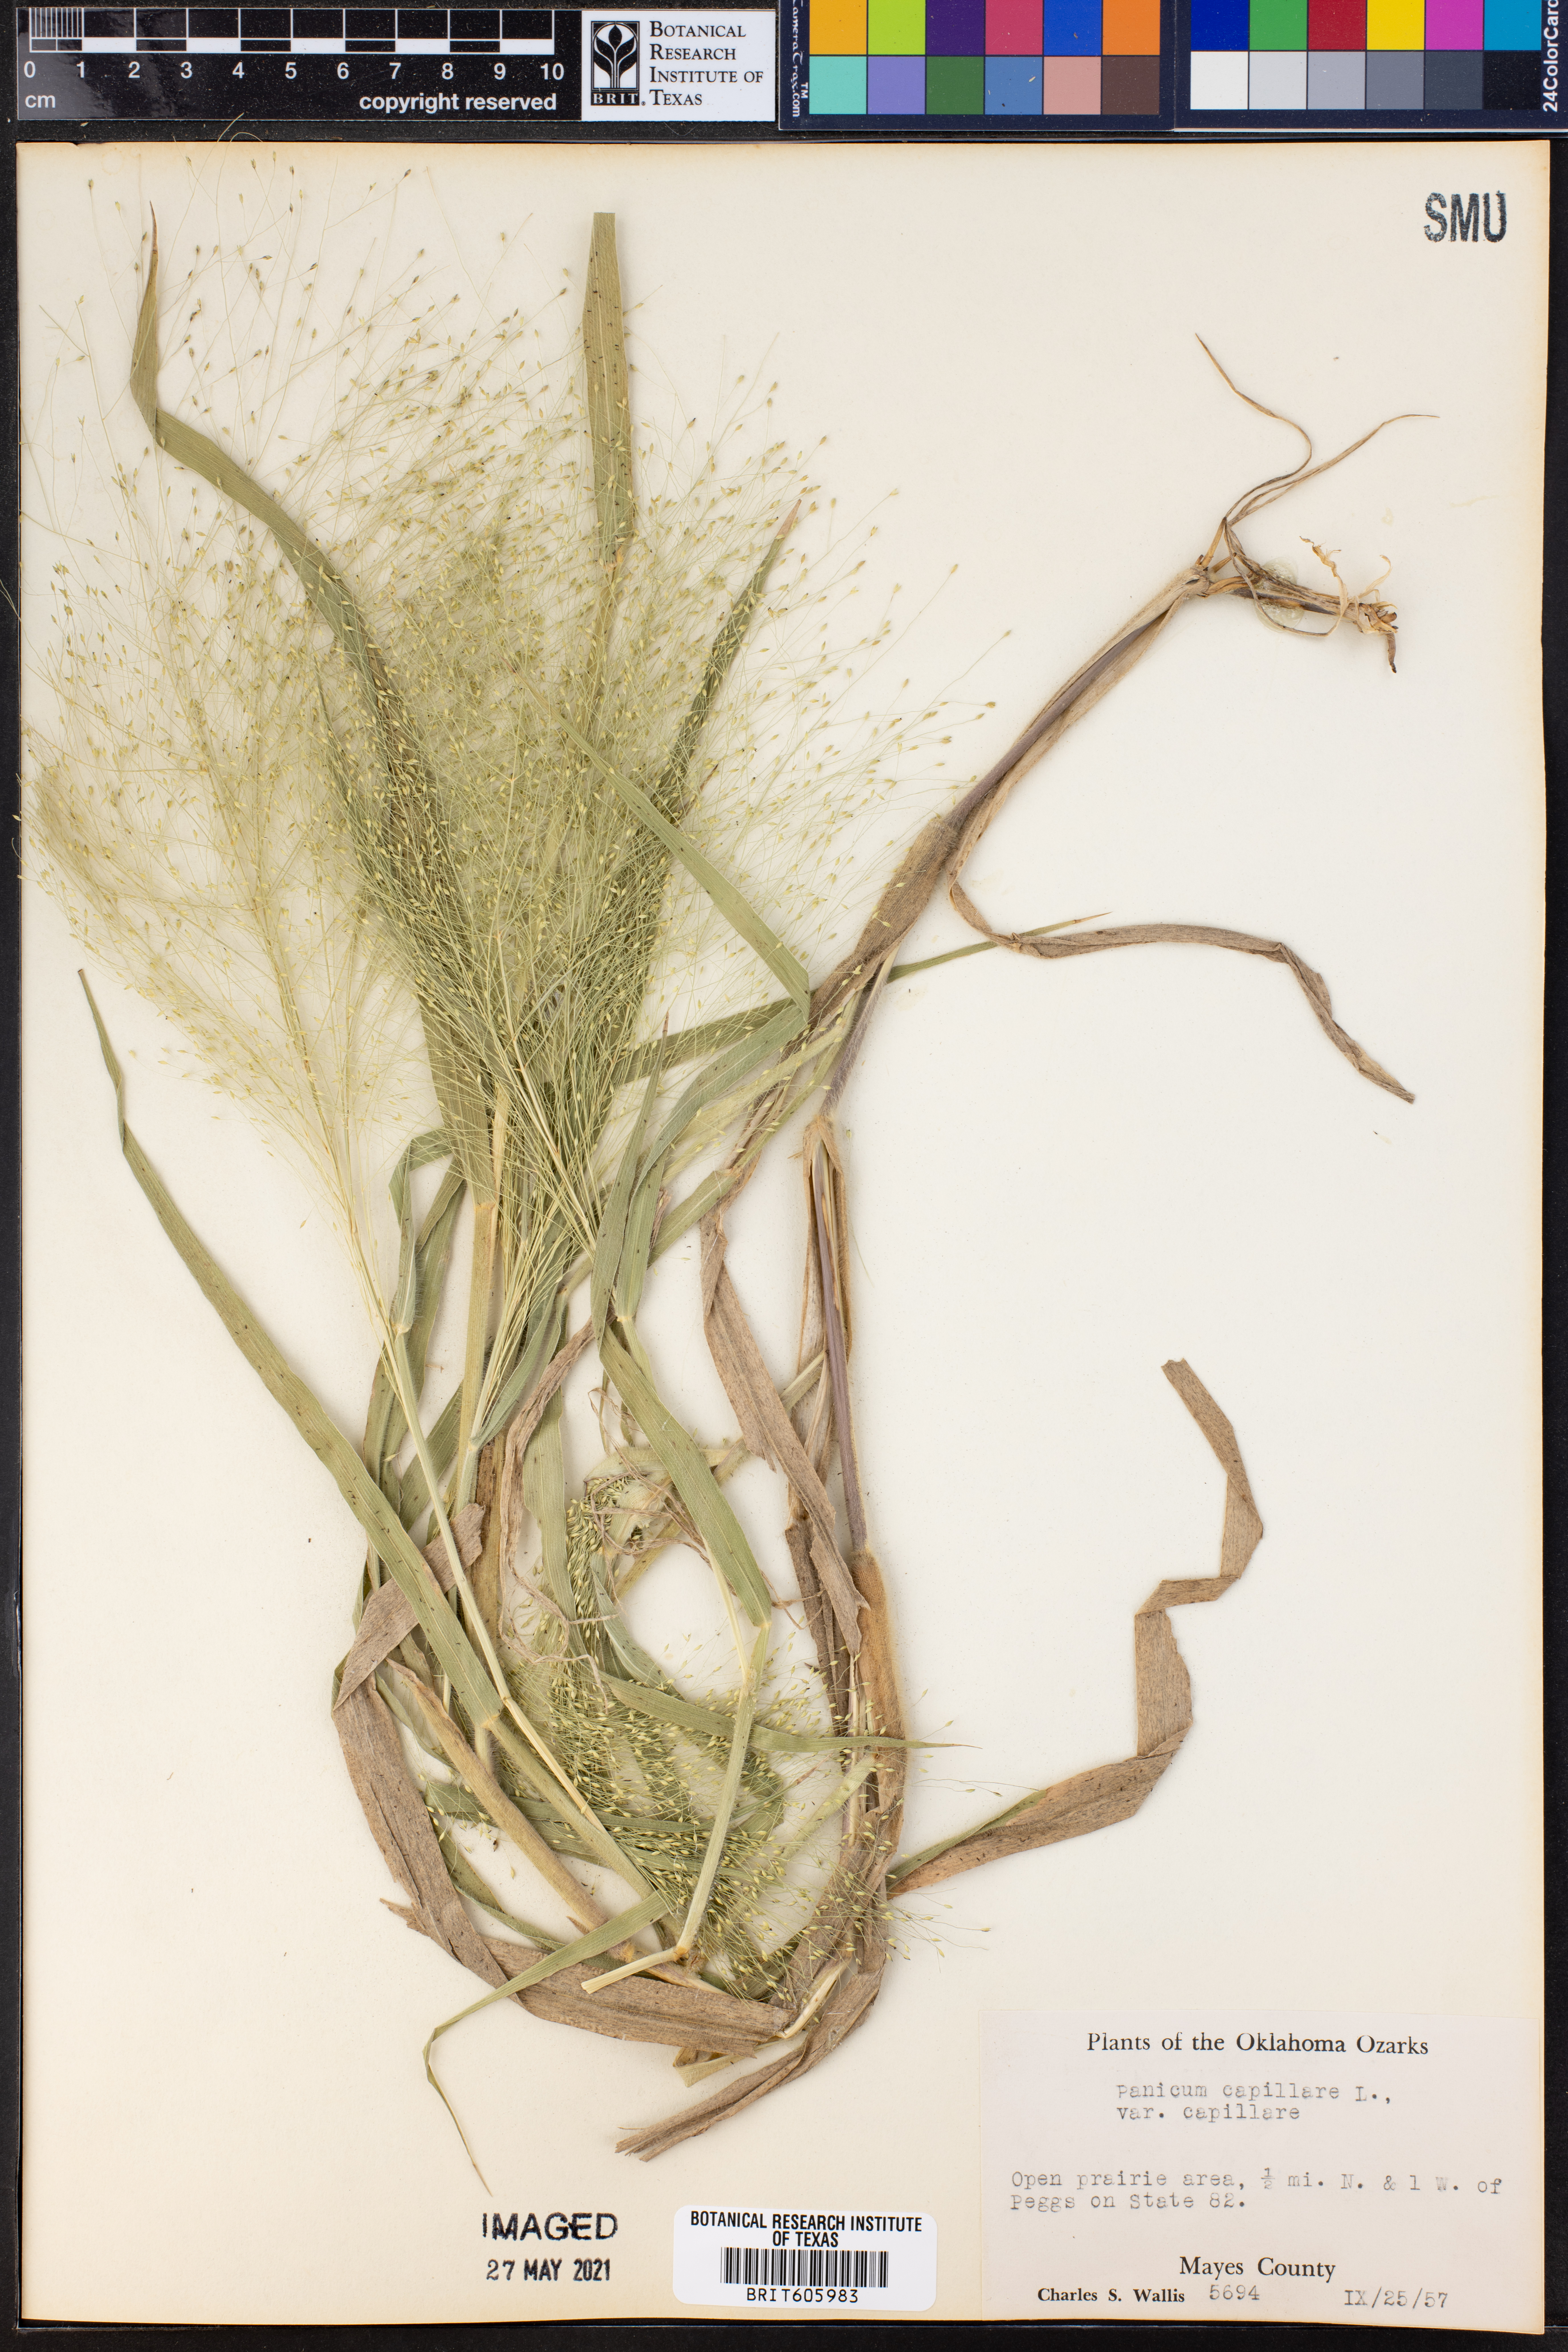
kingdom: Plantae
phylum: Tracheophyta
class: Liliopsida
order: Poales
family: Poaceae
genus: Panicum
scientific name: Panicum capillare
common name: Witch-grass
